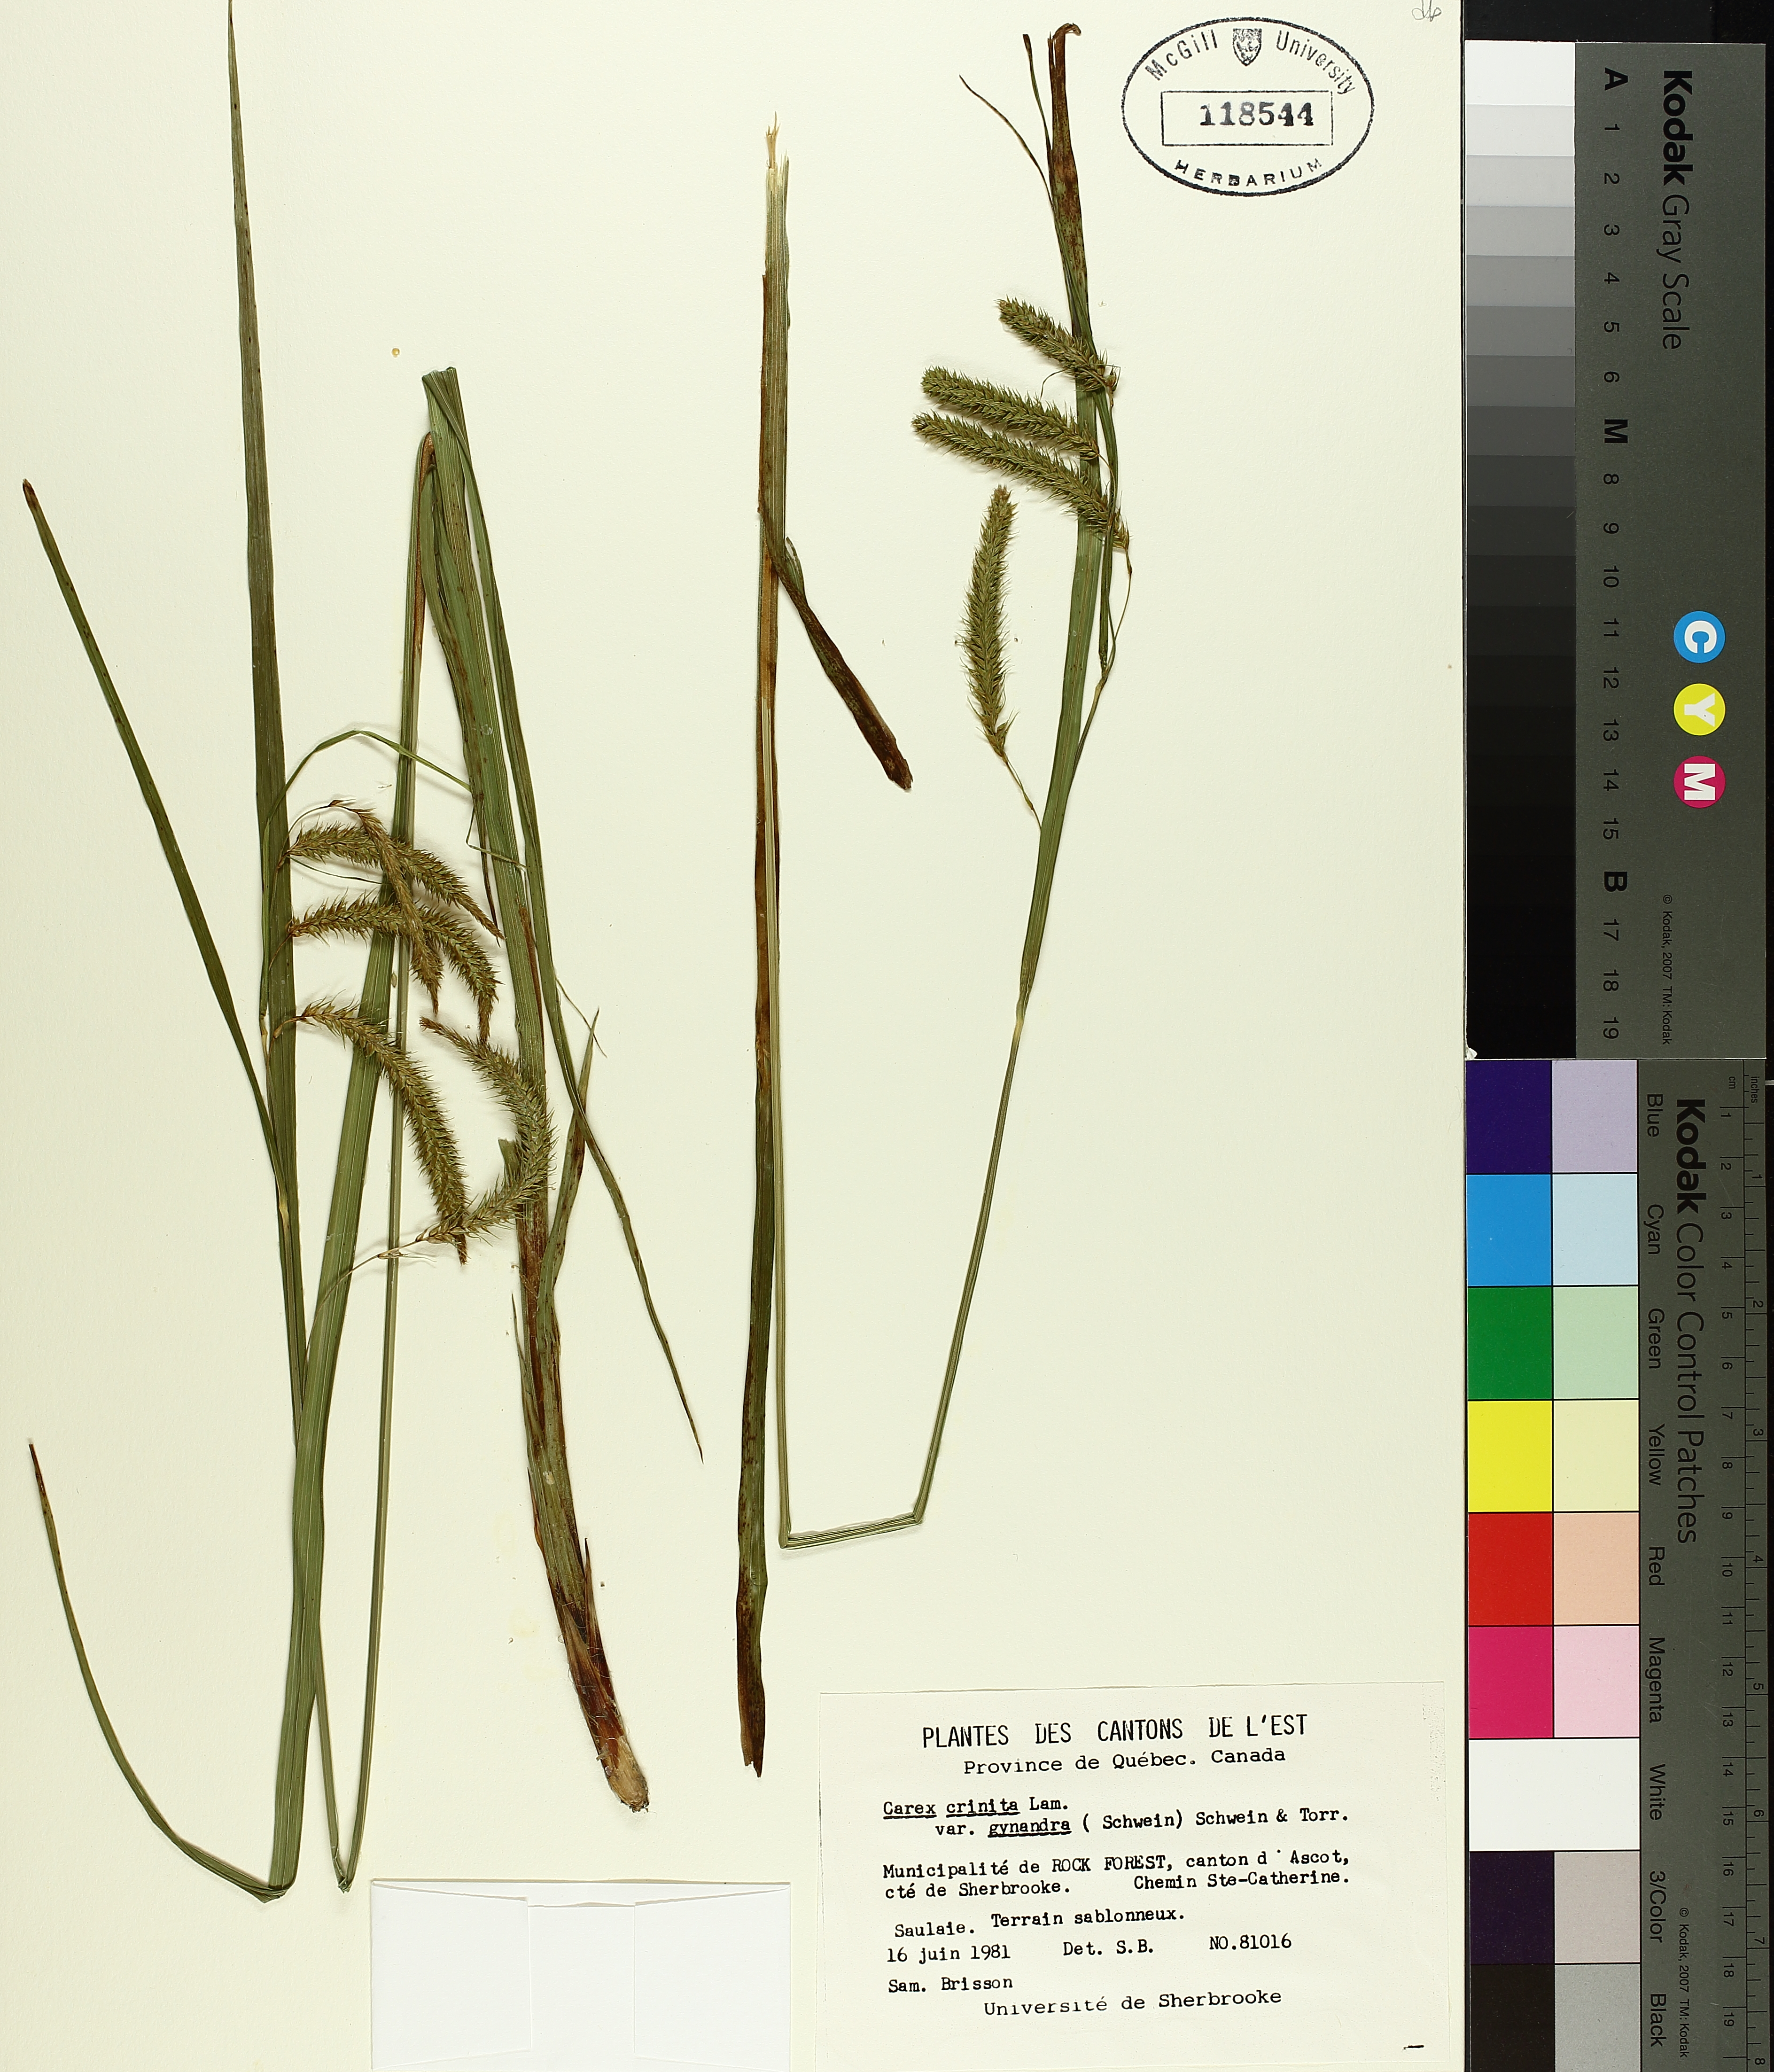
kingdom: Plantae
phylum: Tracheophyta
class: Liliopsida
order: Poales
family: Cyperaceae
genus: Carex
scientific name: Carex gynandra
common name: Nodding sedge
